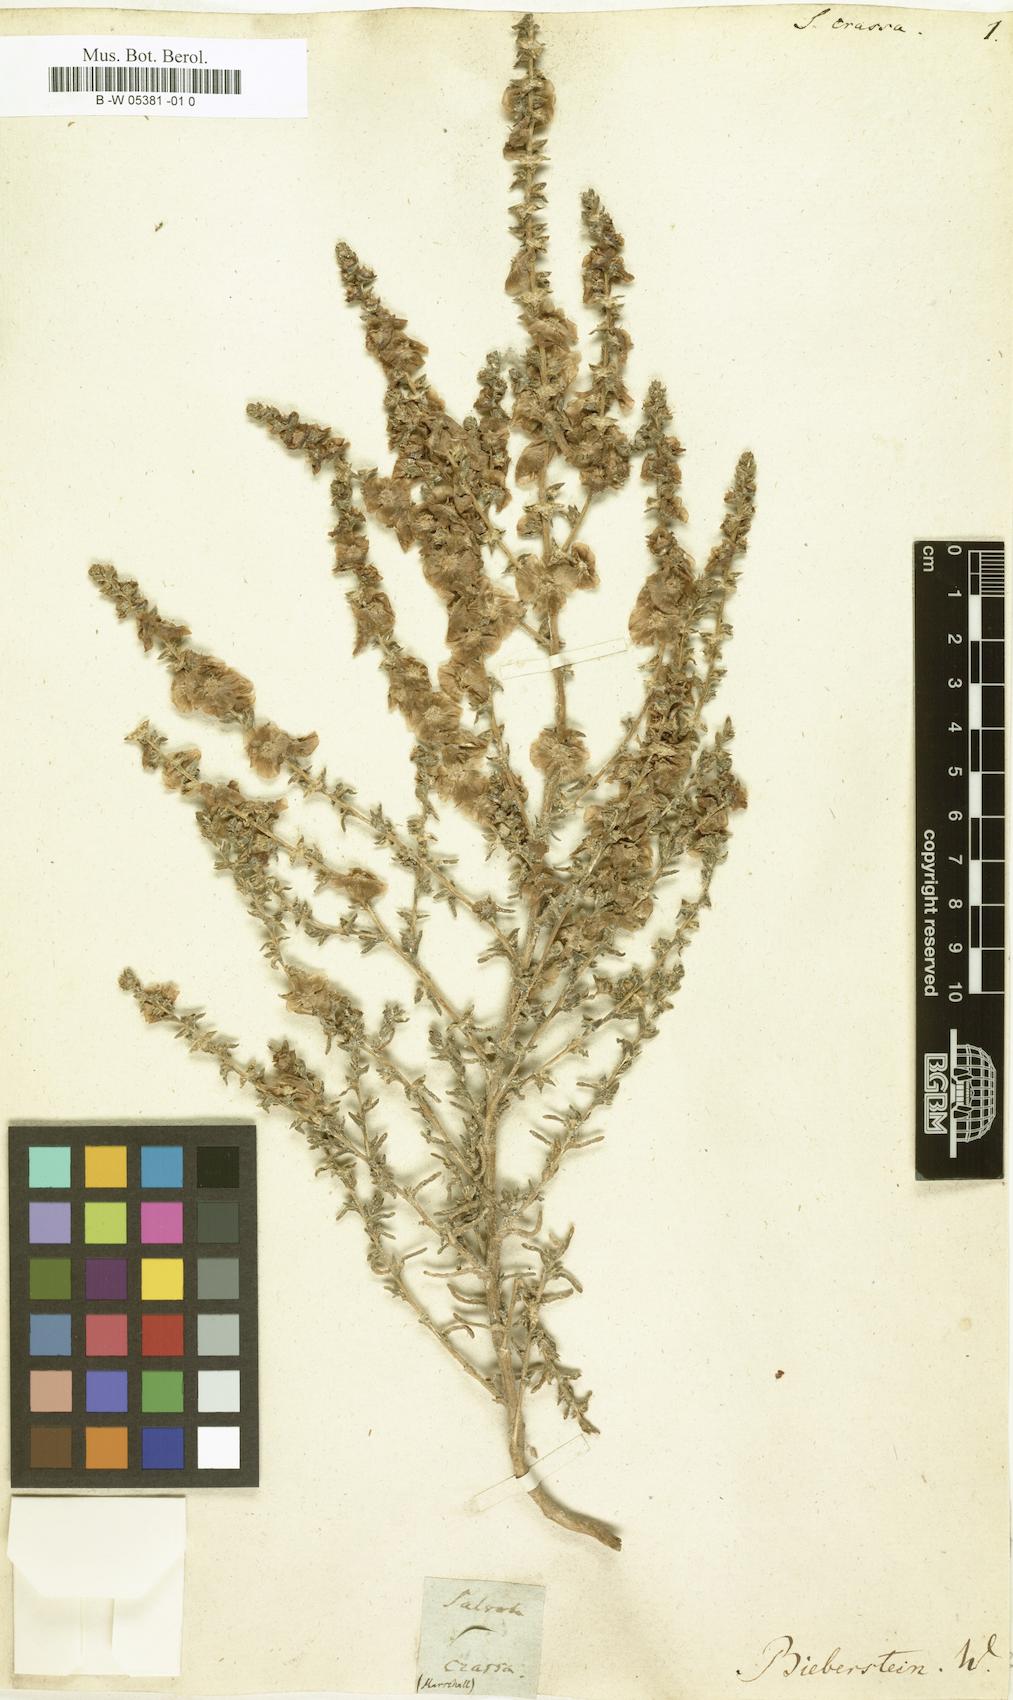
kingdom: Plantae
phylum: Tracheophyta
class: Magnoliopsida
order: Caryophyllales
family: Amaranthaceae
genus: Climacoptera
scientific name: Climacoptera crassa
